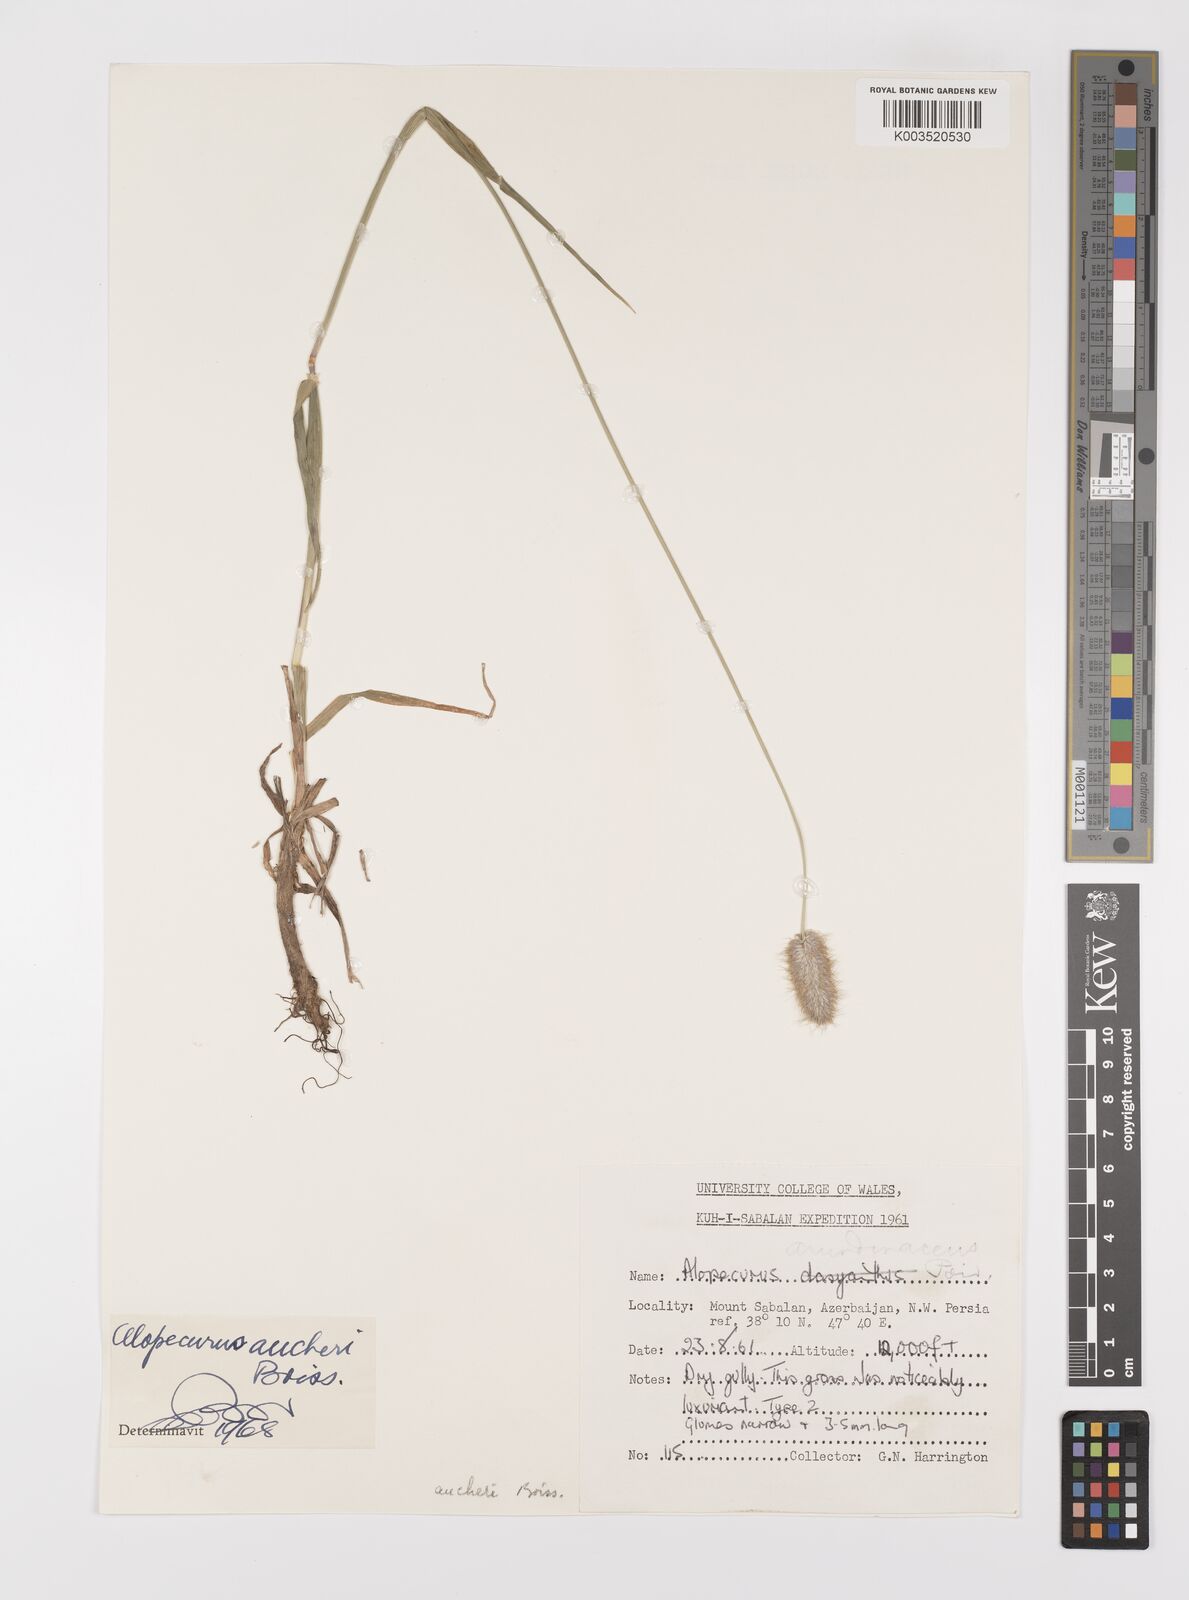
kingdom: Plantae
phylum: Tracheophyta
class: Liliopsida
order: Poales
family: Poaceae
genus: Alopecurus
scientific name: Alopecurus aucheri
